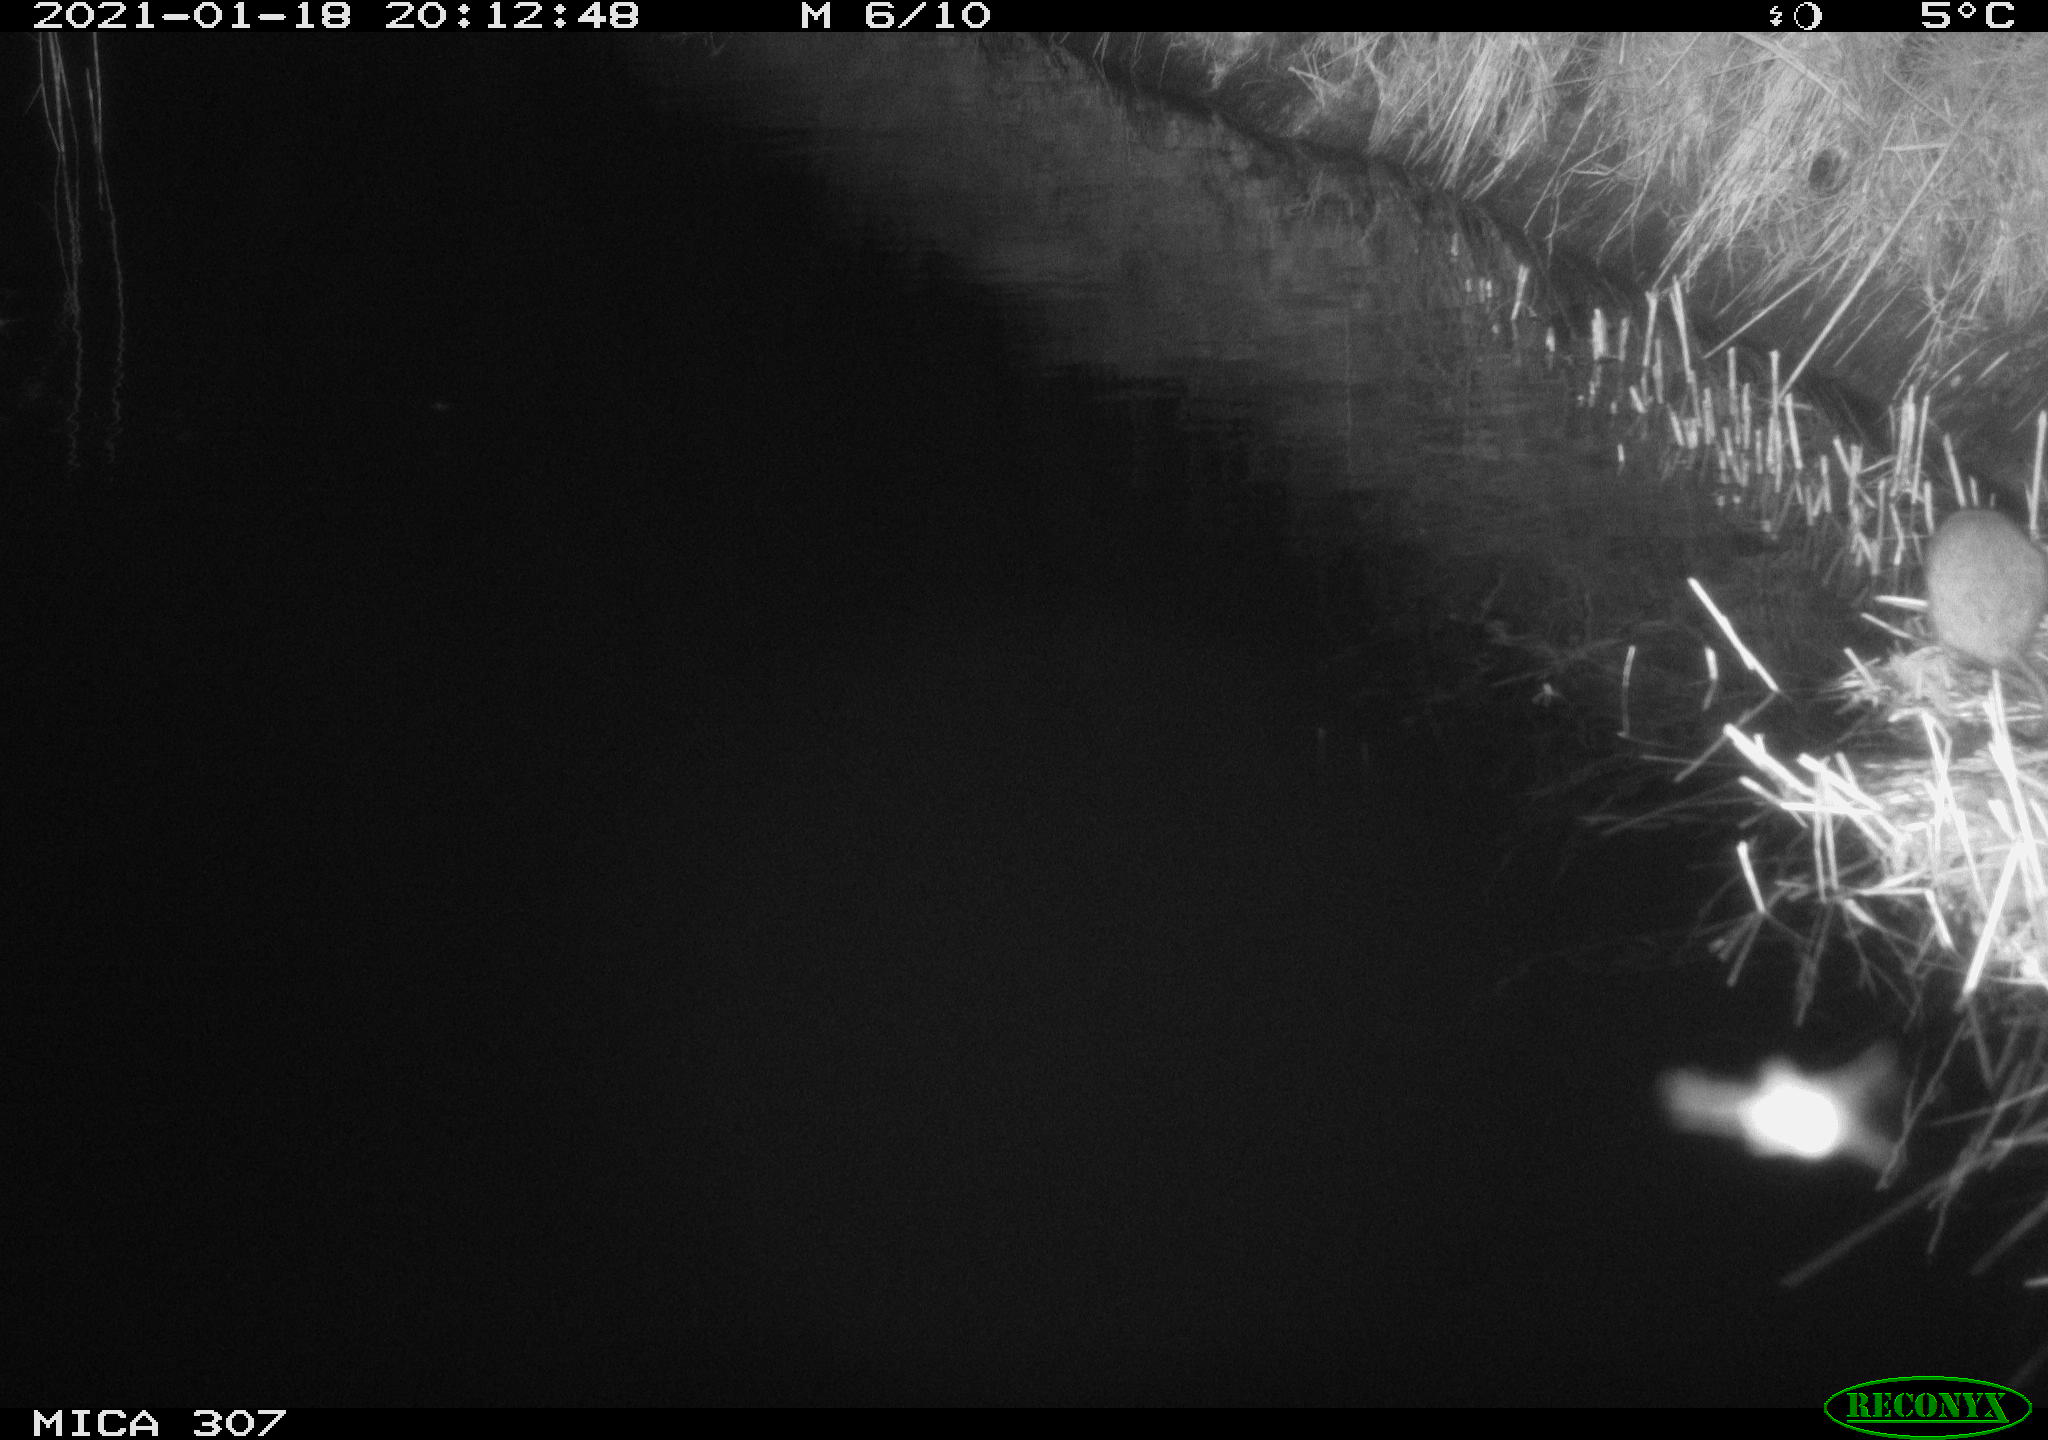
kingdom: Animalia
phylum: Chordata
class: Mammalia
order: Rodentia
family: Muridae
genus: Rattus
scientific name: Rattus norvegicus
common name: Brown rat
